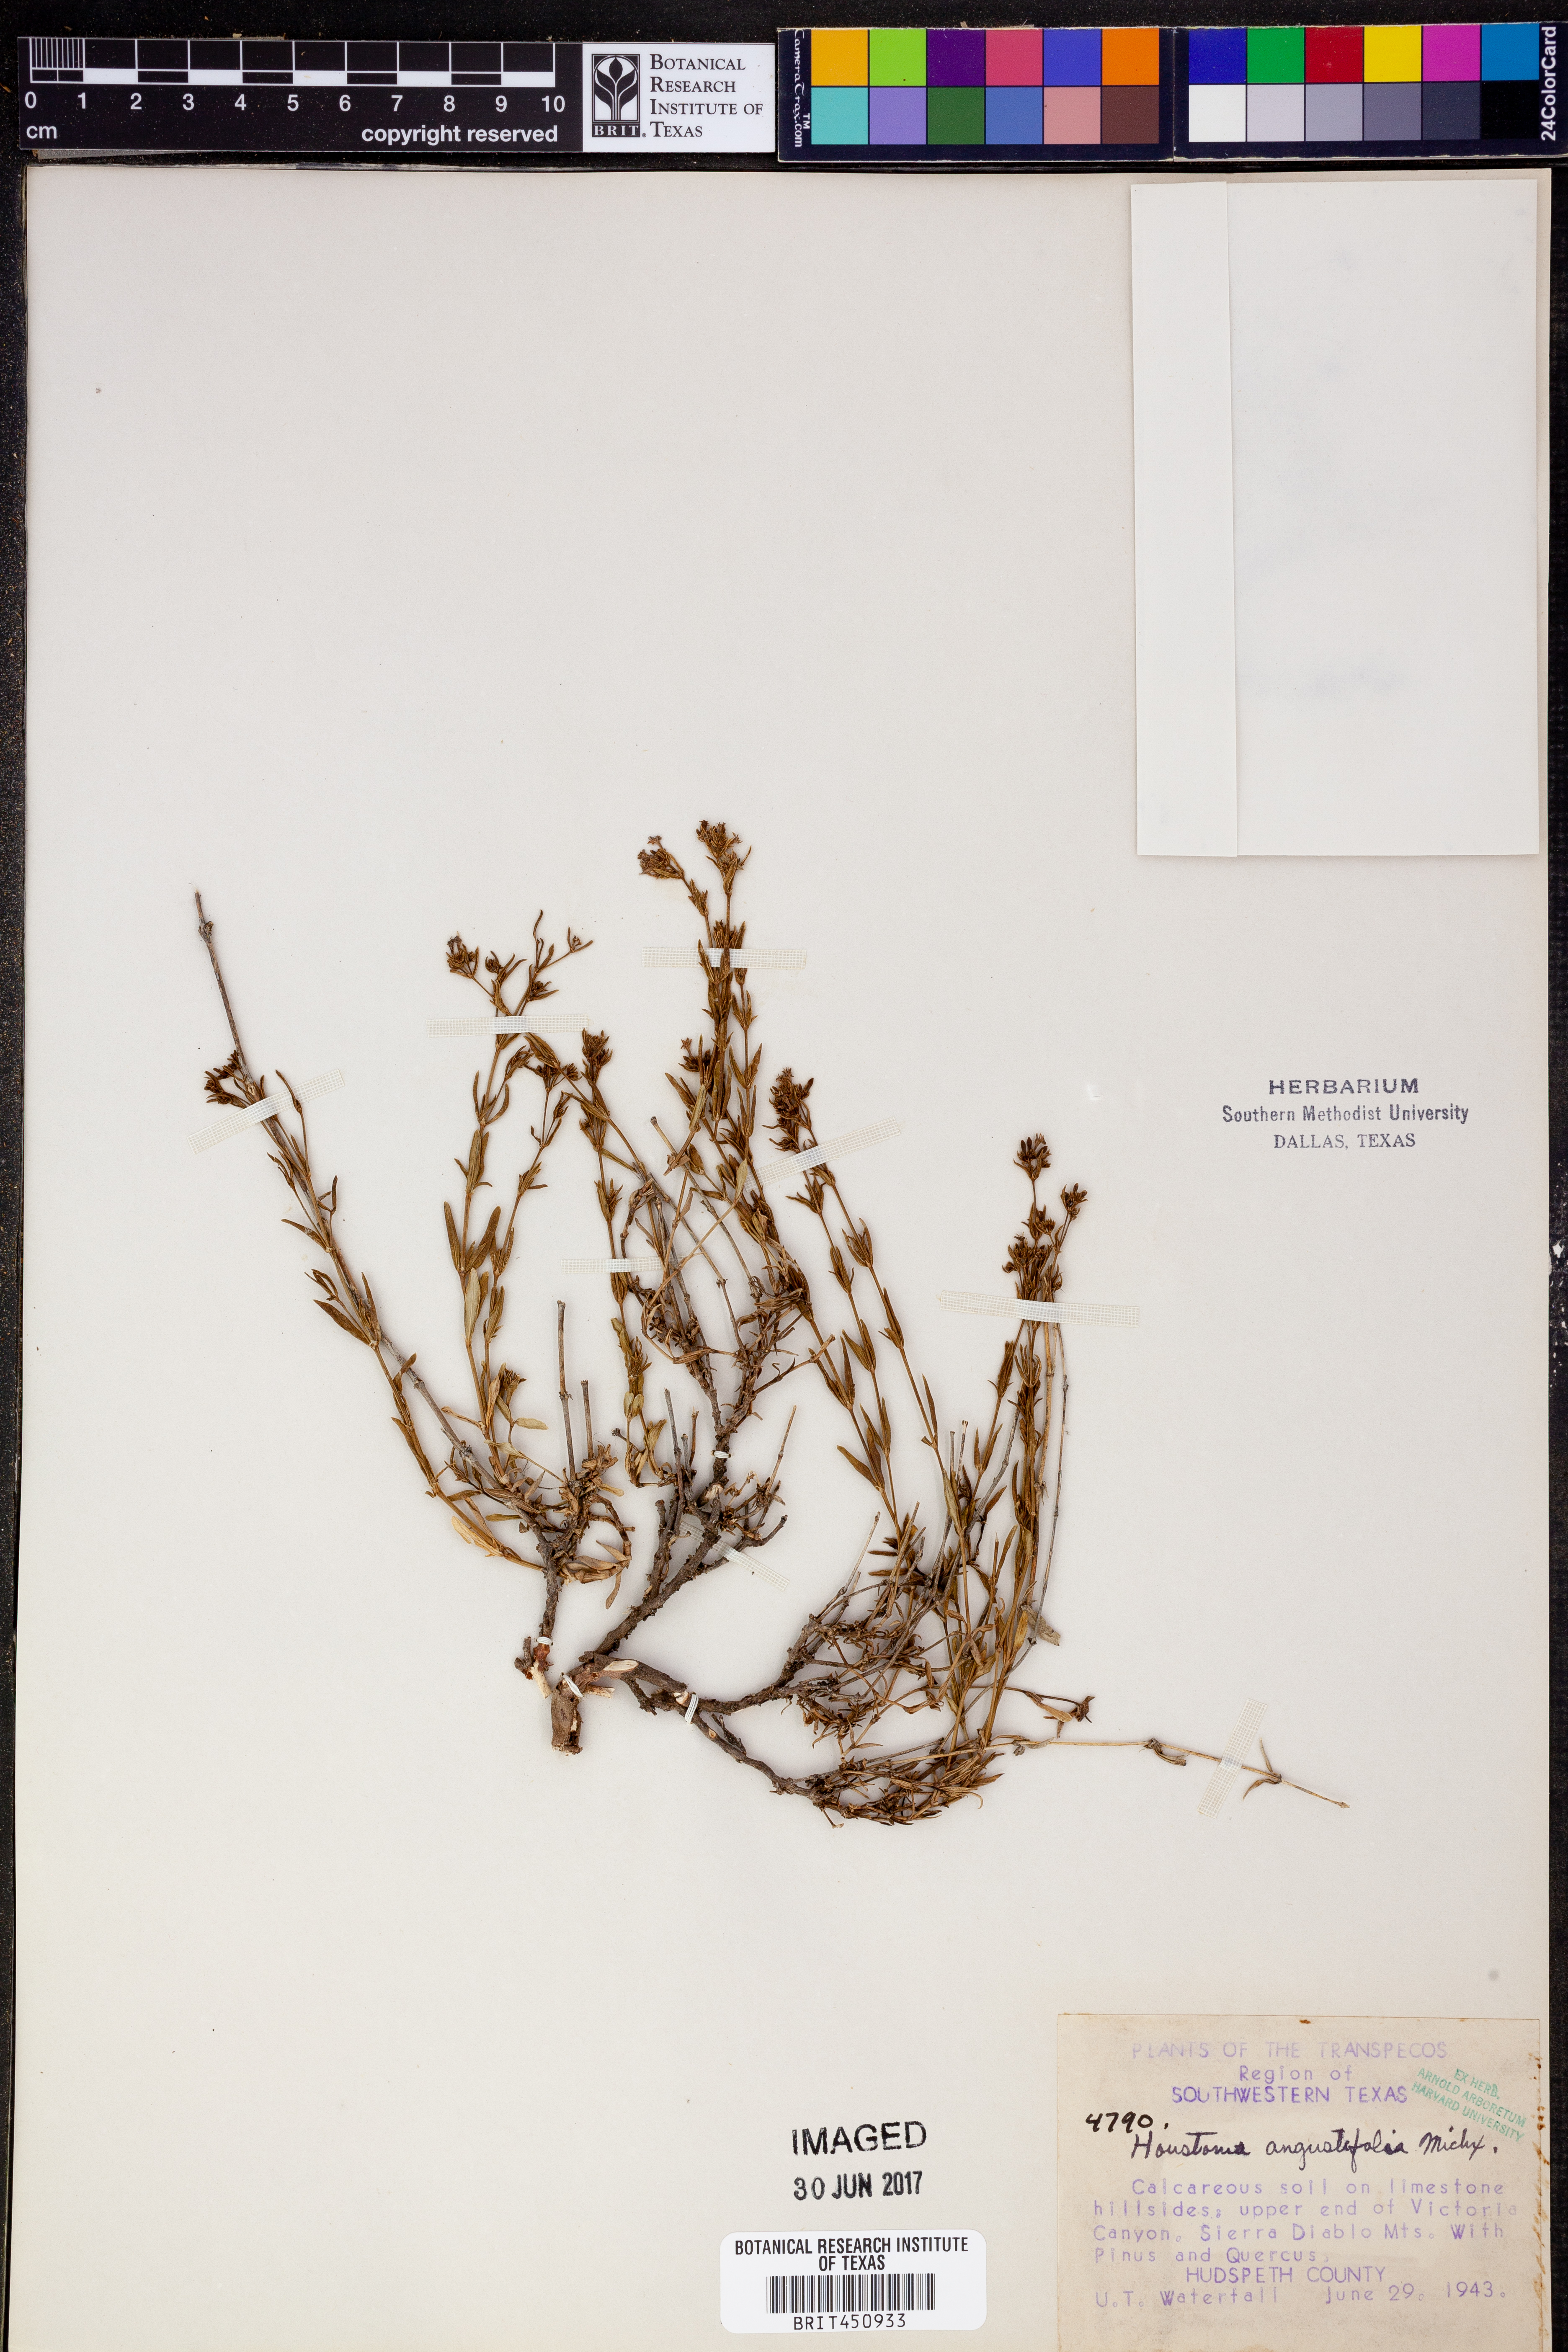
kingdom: Plantae
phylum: Tracheophyta
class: Magnoliopsida
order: Gentianales
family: Rubiaceae
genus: Stenaria
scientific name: Stenaria nigricans
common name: Diamondflowers
